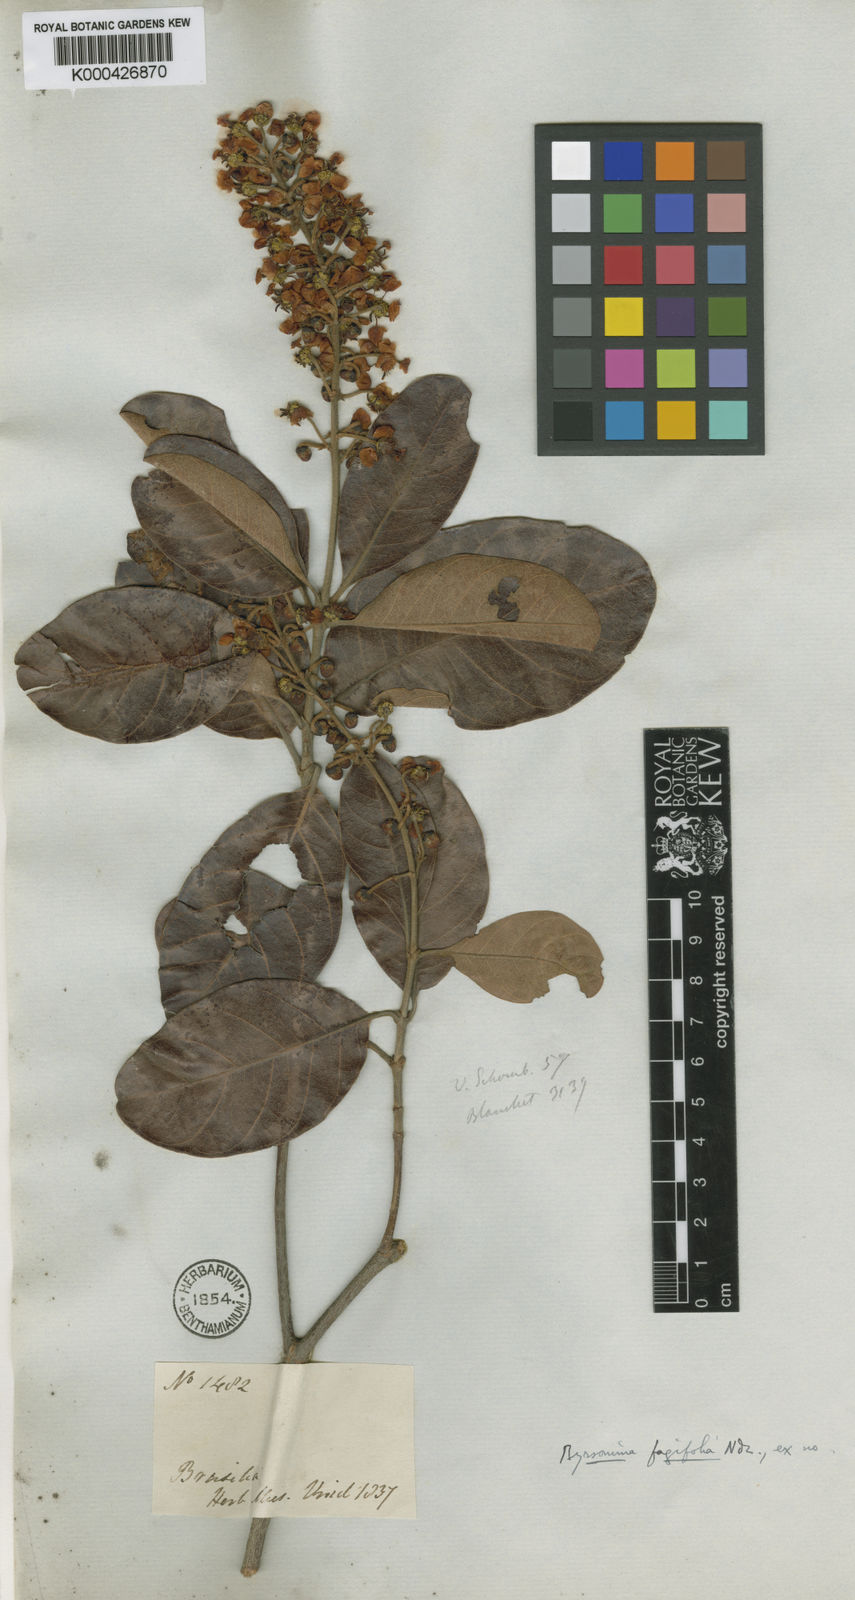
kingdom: Plantae
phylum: Tracheophyta
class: Magnoliopsida
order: Malpighiales
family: Malpighiaceae
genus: Byrsonima
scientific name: Byrsonima crassifolia
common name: Golden spoon
